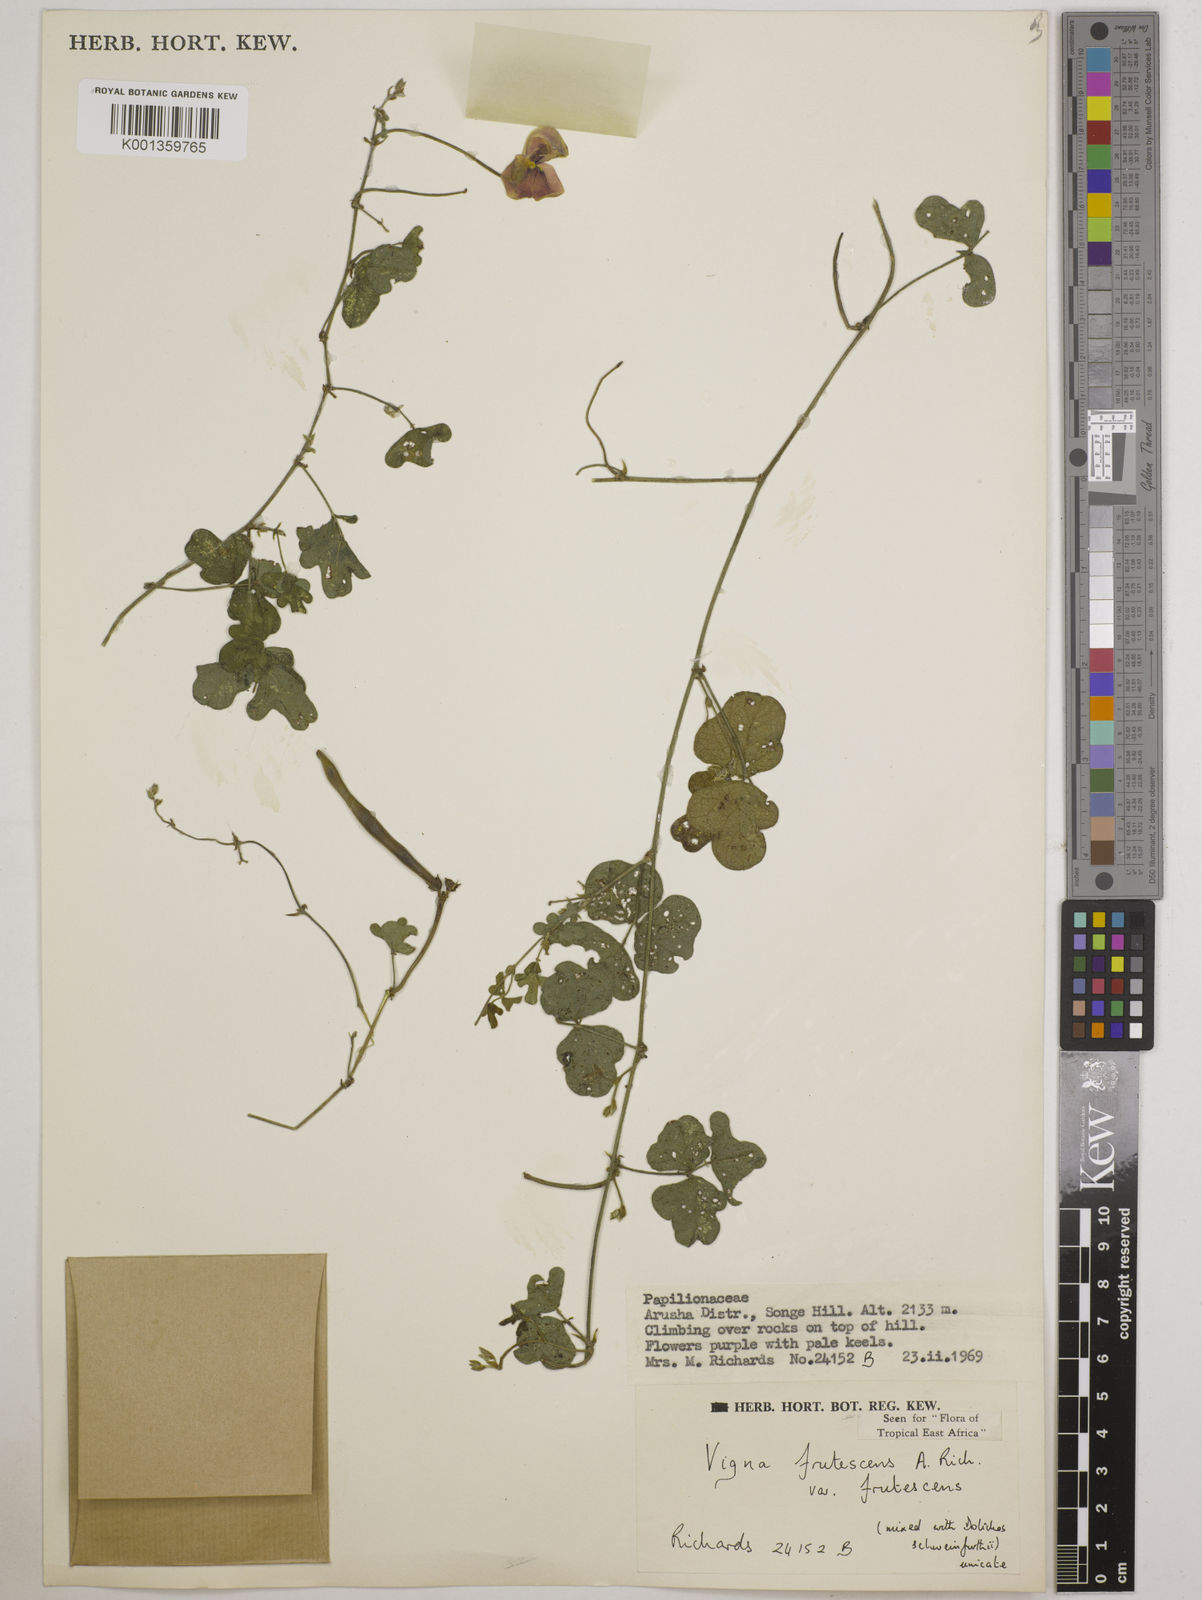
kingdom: Plantae
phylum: Tracheophyta
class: Magnoliopsida
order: Fabales
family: Fabaceae
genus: Vigna
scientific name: Vigna frutescens
